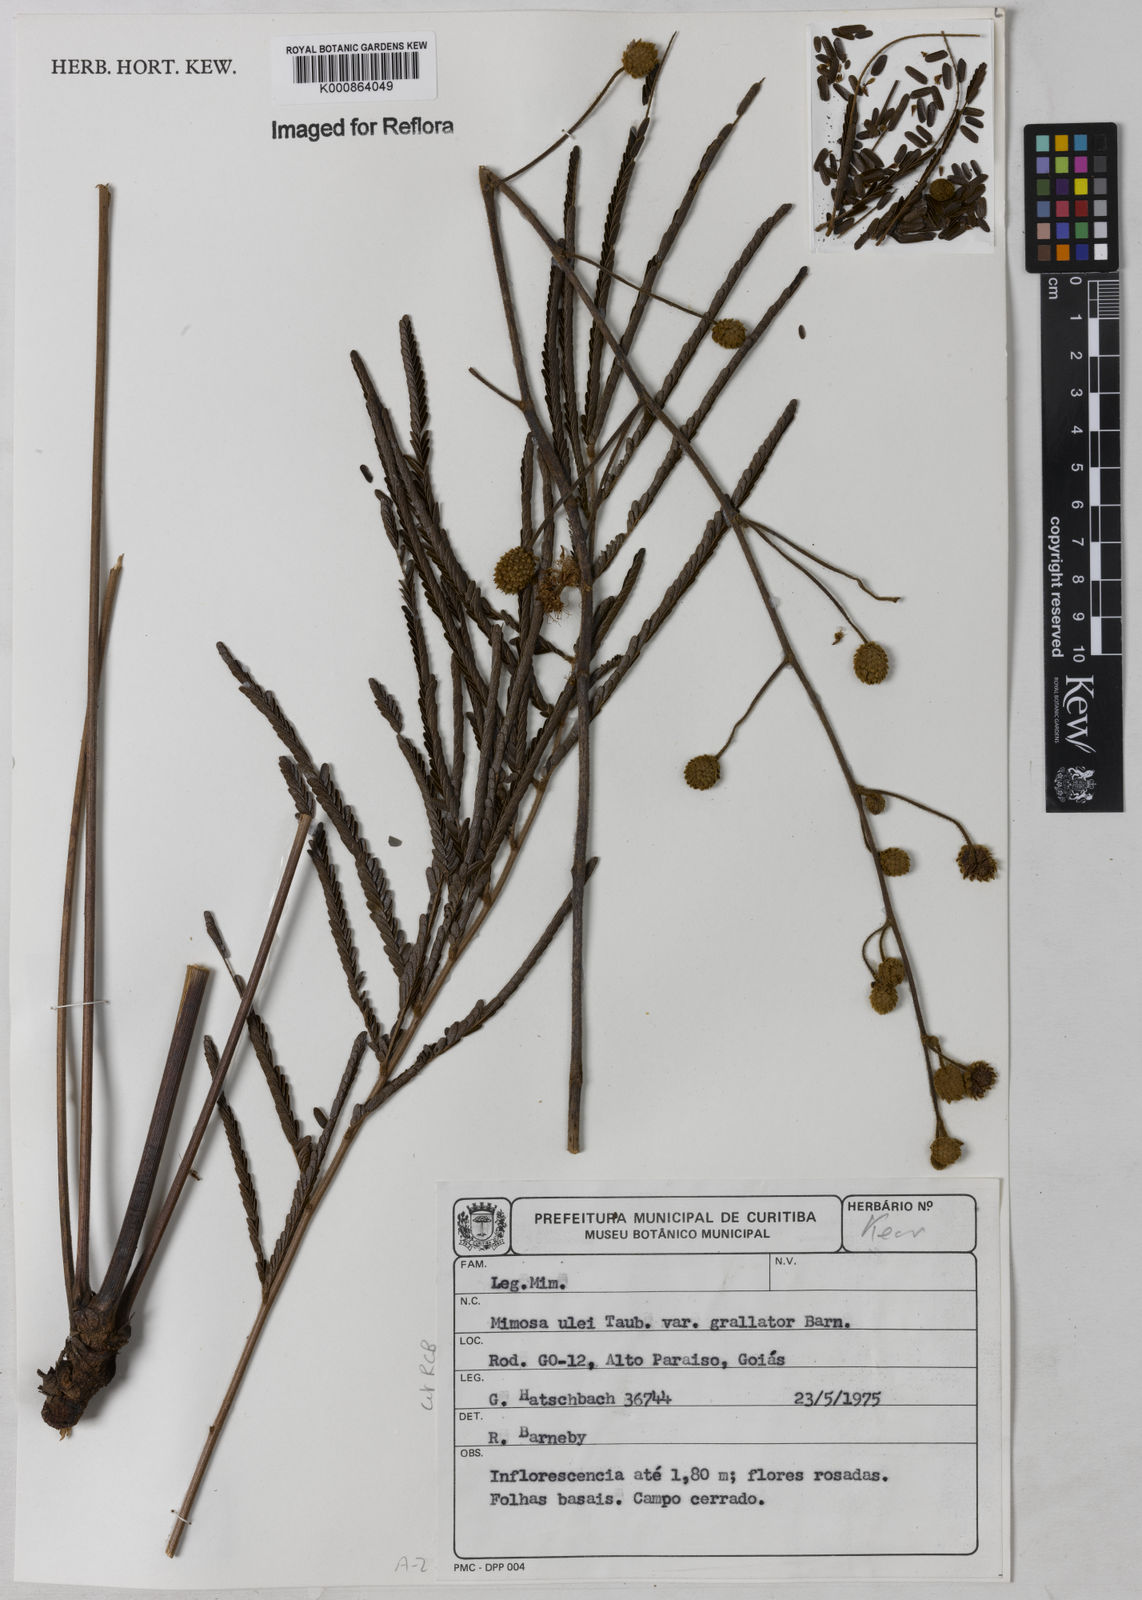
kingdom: Plantae
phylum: Tracheophyta
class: Magnoliopsida
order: Fabales
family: Fabaceae
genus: Mimosa
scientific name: Mimosa ulei
